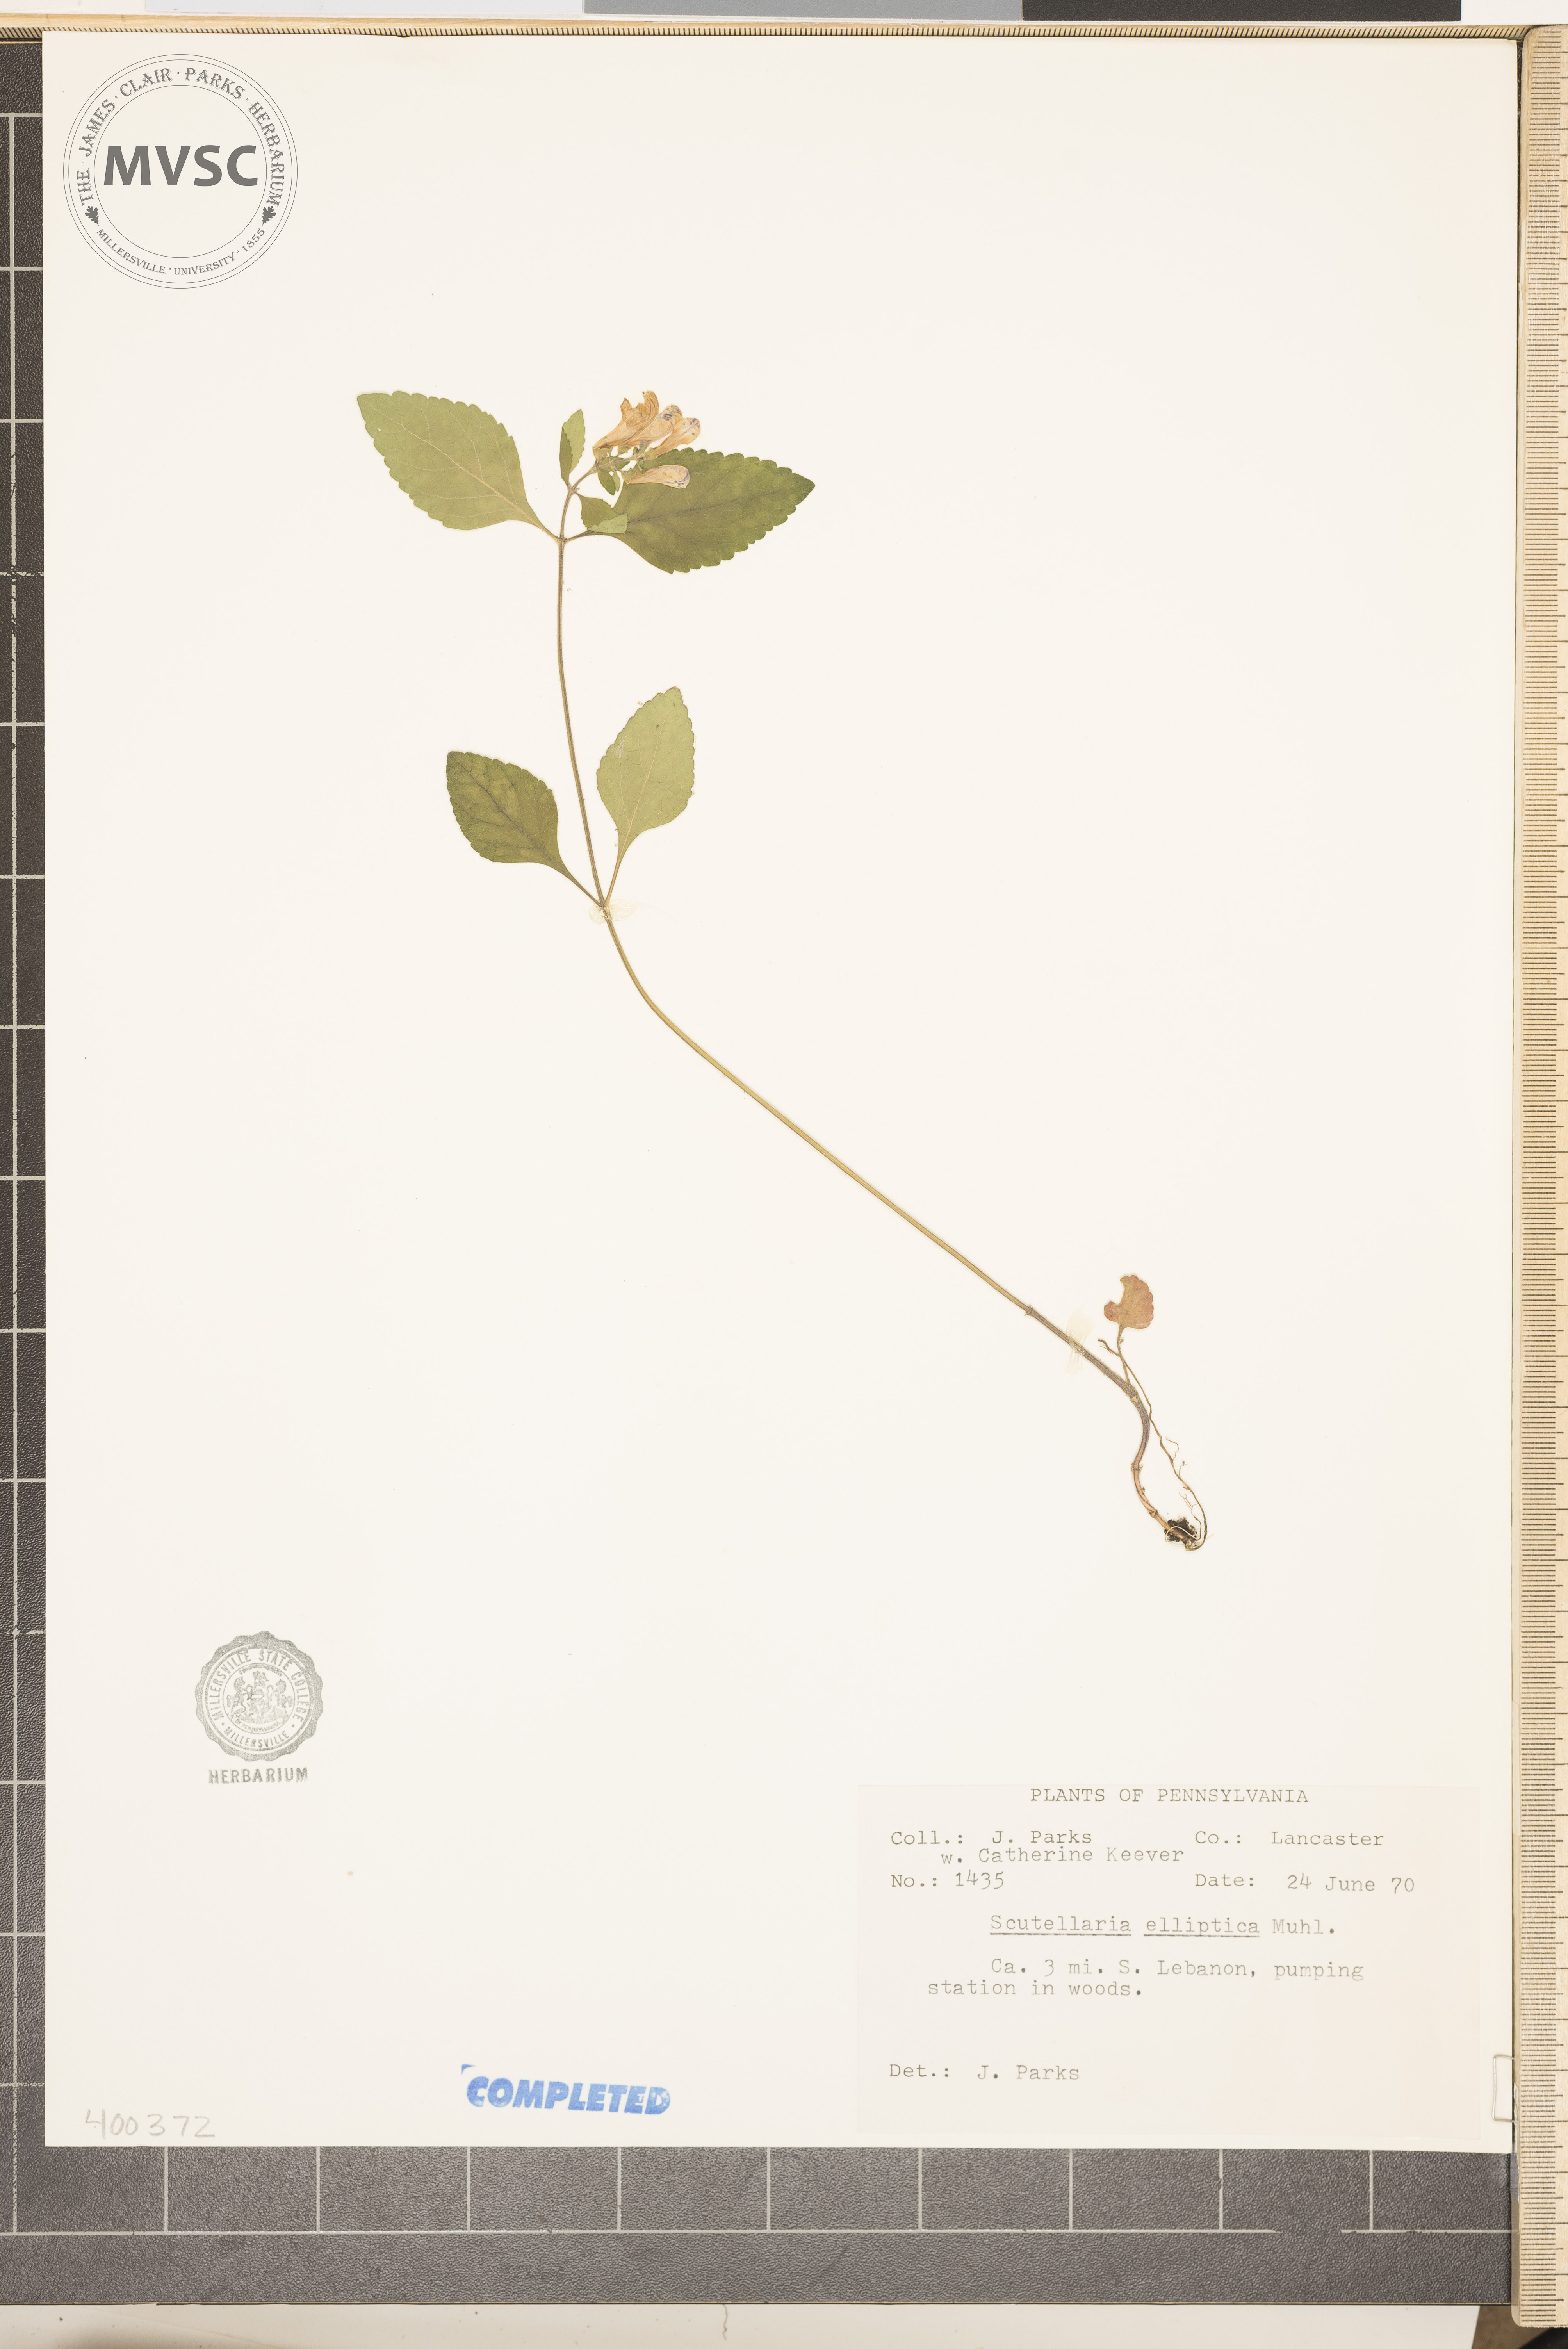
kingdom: Plantae
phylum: Tracheophyta
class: Magnoliopsida
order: Lamiales
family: Lamiaceae
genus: Scutellaria
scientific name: Scutellaria elliptica
